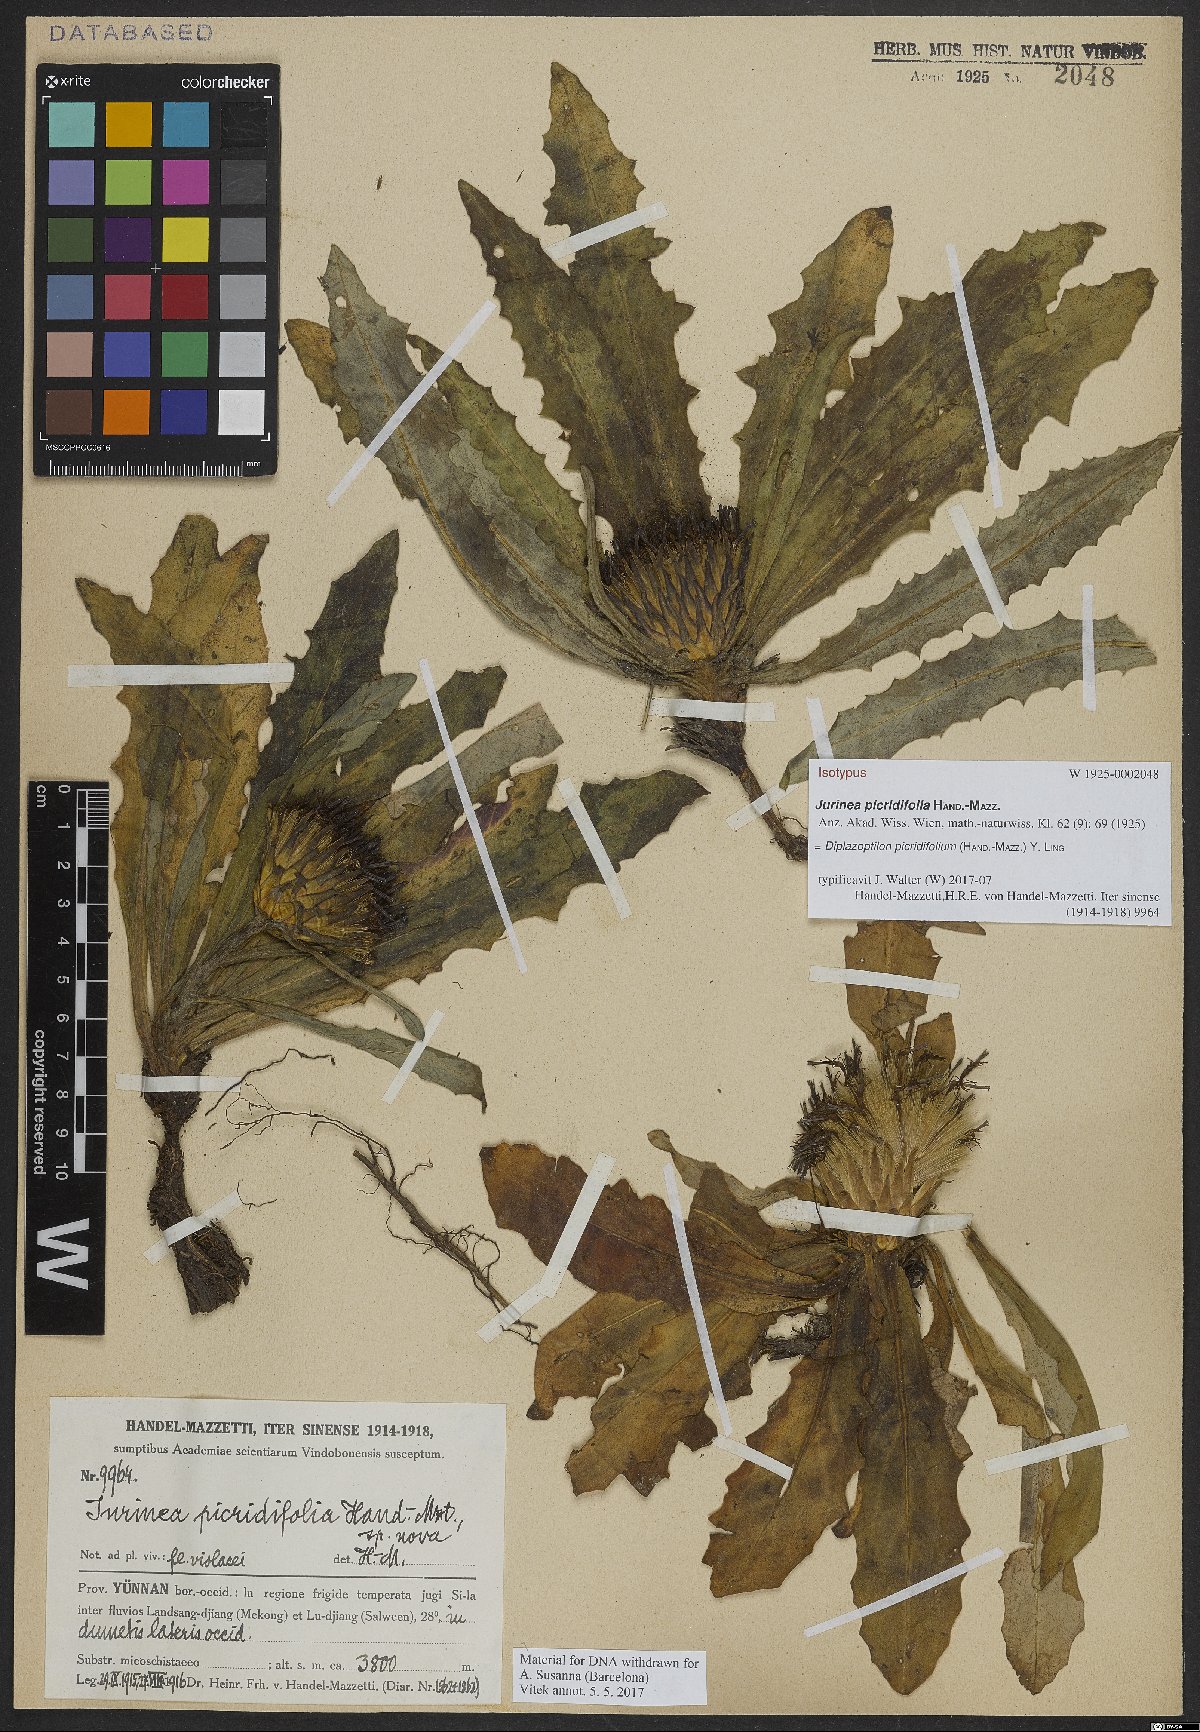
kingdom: Plantae
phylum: Tracheophyta
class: Magnoliopsida
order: Asterales
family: Asteraceae
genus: Saussurea
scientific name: Saussurea picridifolia
